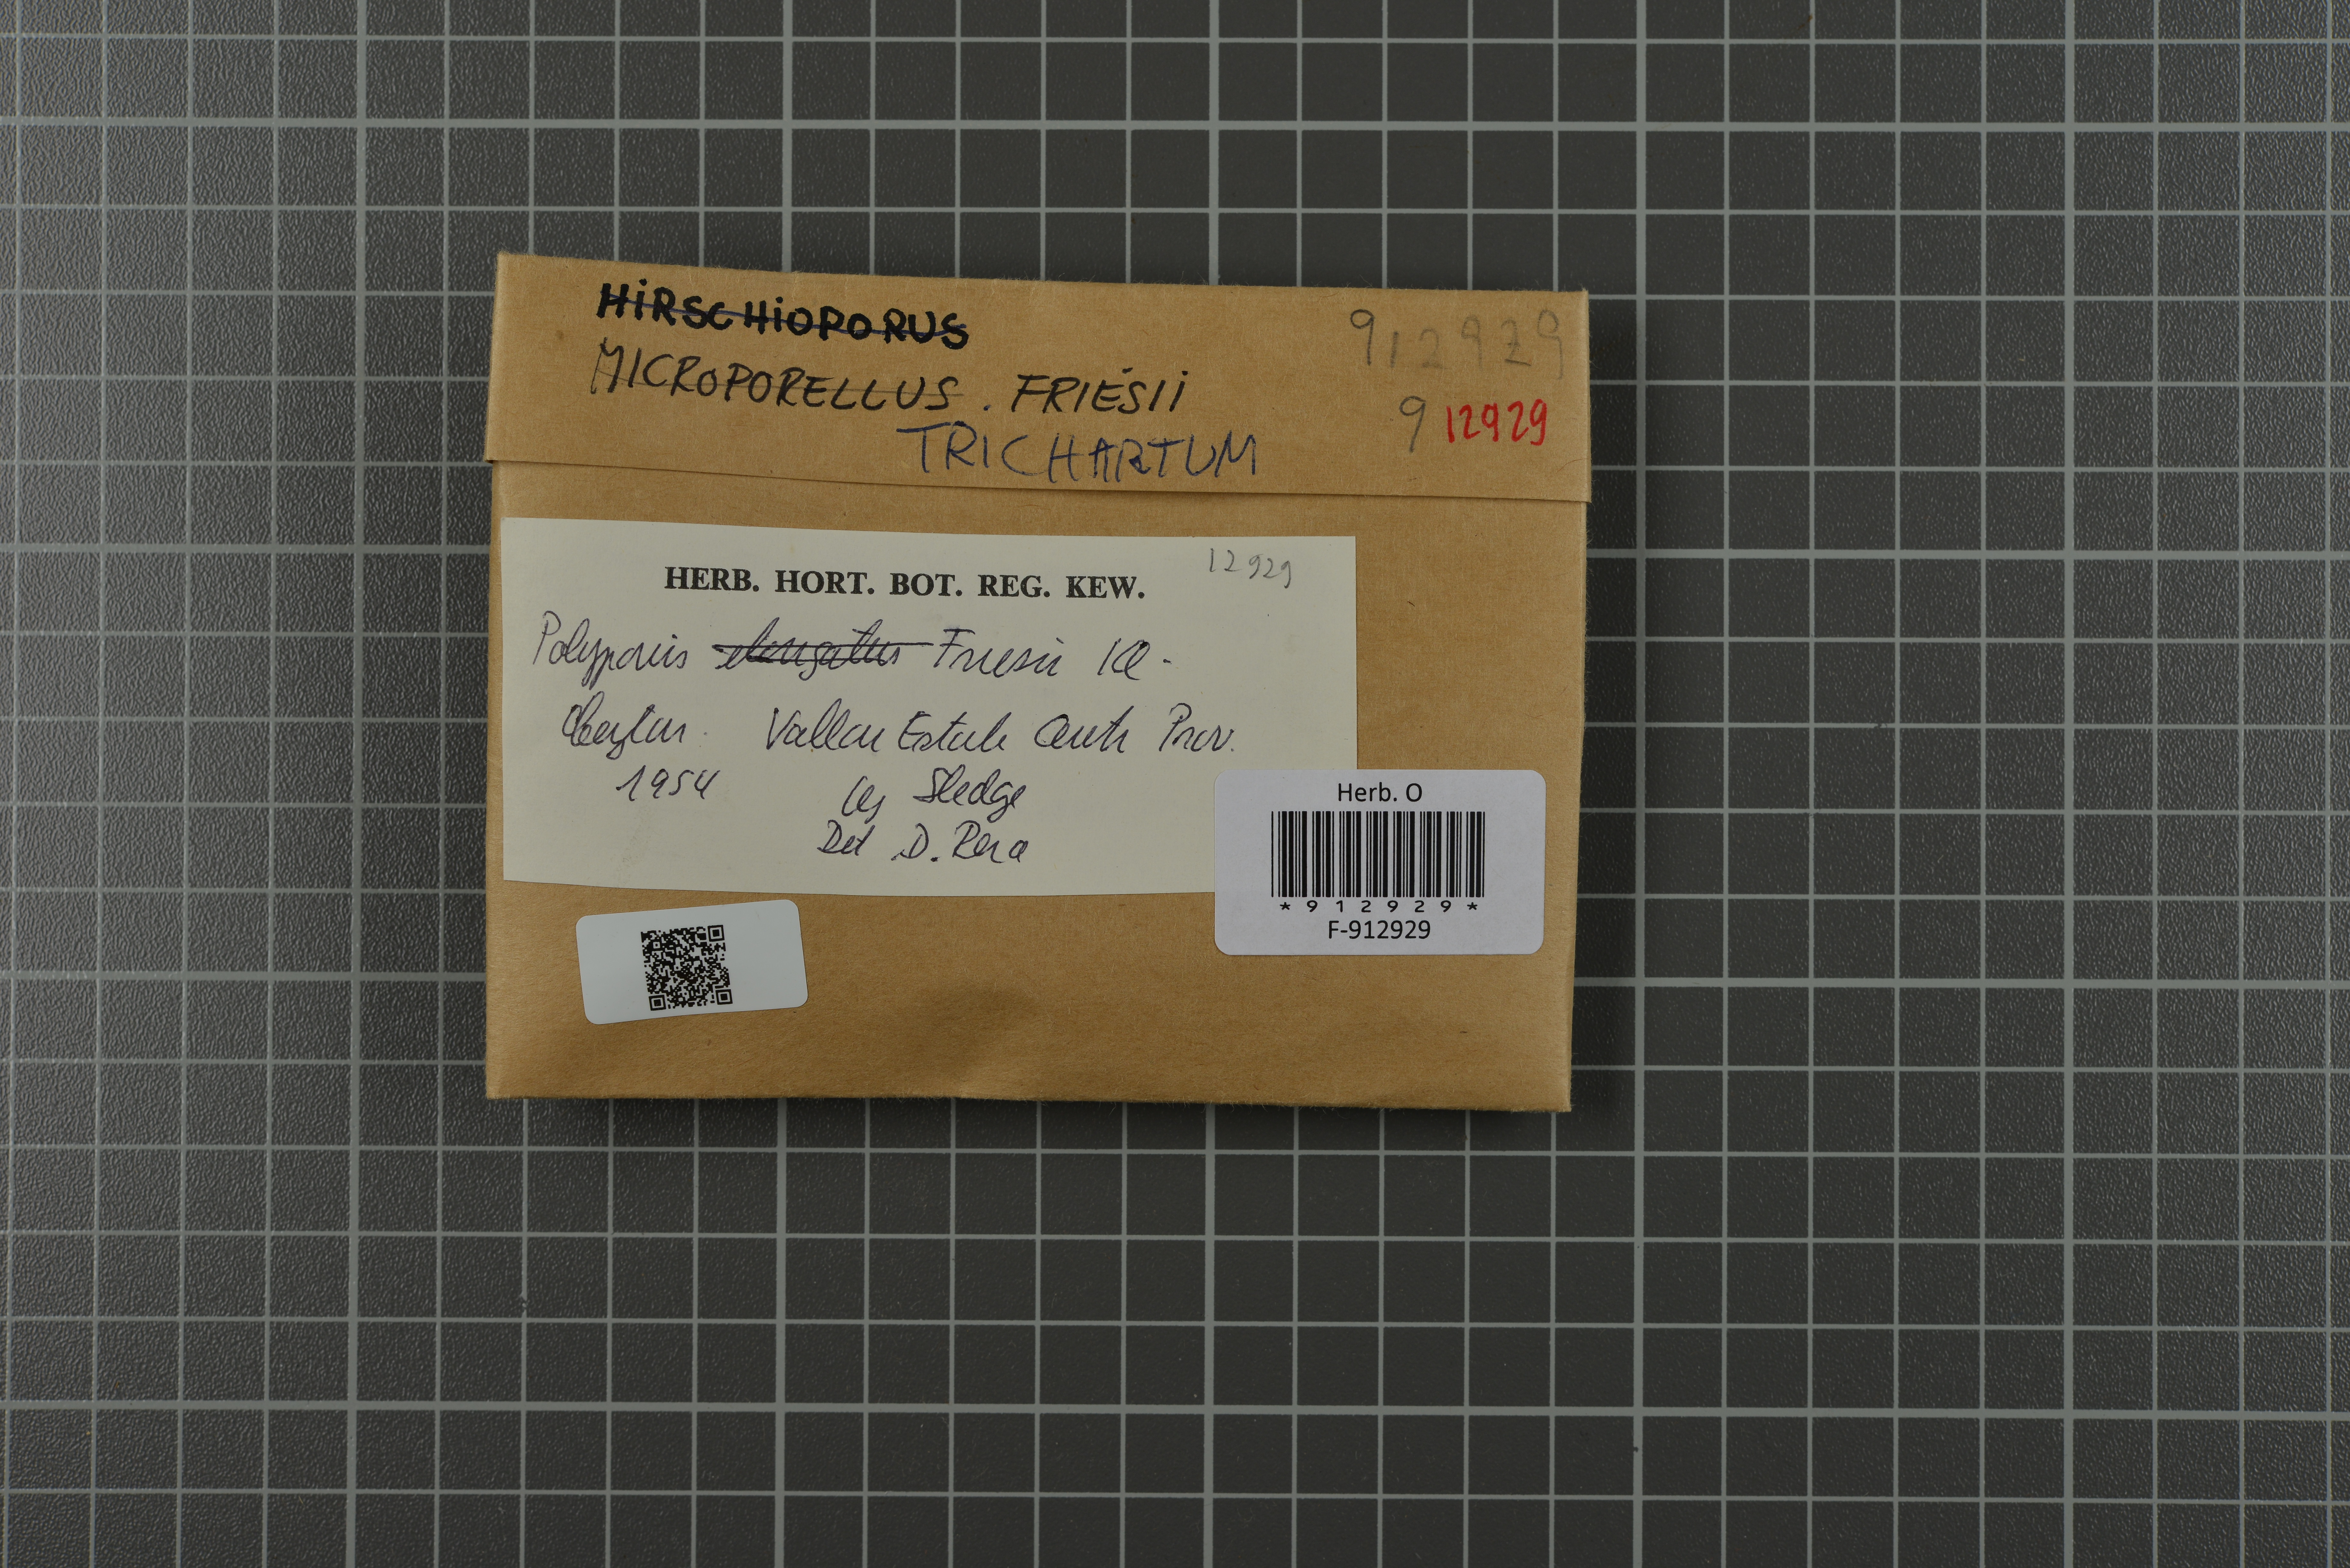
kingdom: Fungi
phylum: Basidiomycota
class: Agaricomycetes
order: Hymenochaetales
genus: Trichaptum
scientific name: Trichaptum biforme
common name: Violet-toothed polypore
